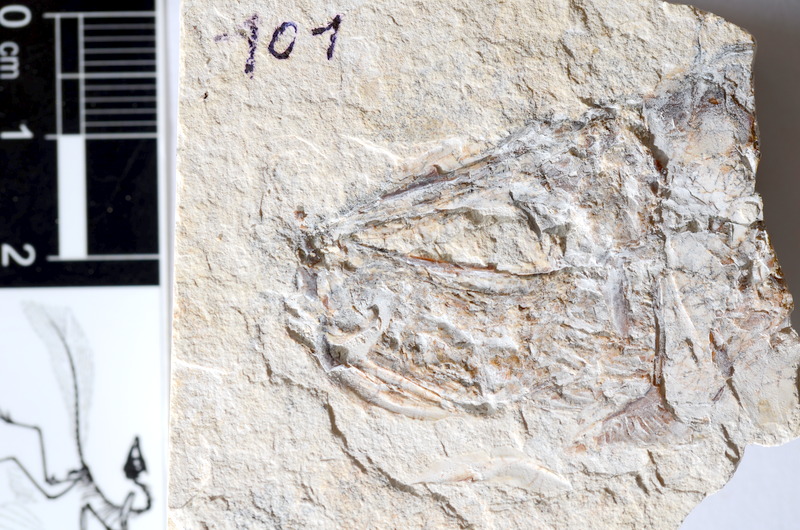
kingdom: Animalia
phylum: Chordata
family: Ascalaboidae
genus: Tharsis
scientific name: Tharsis dubius
